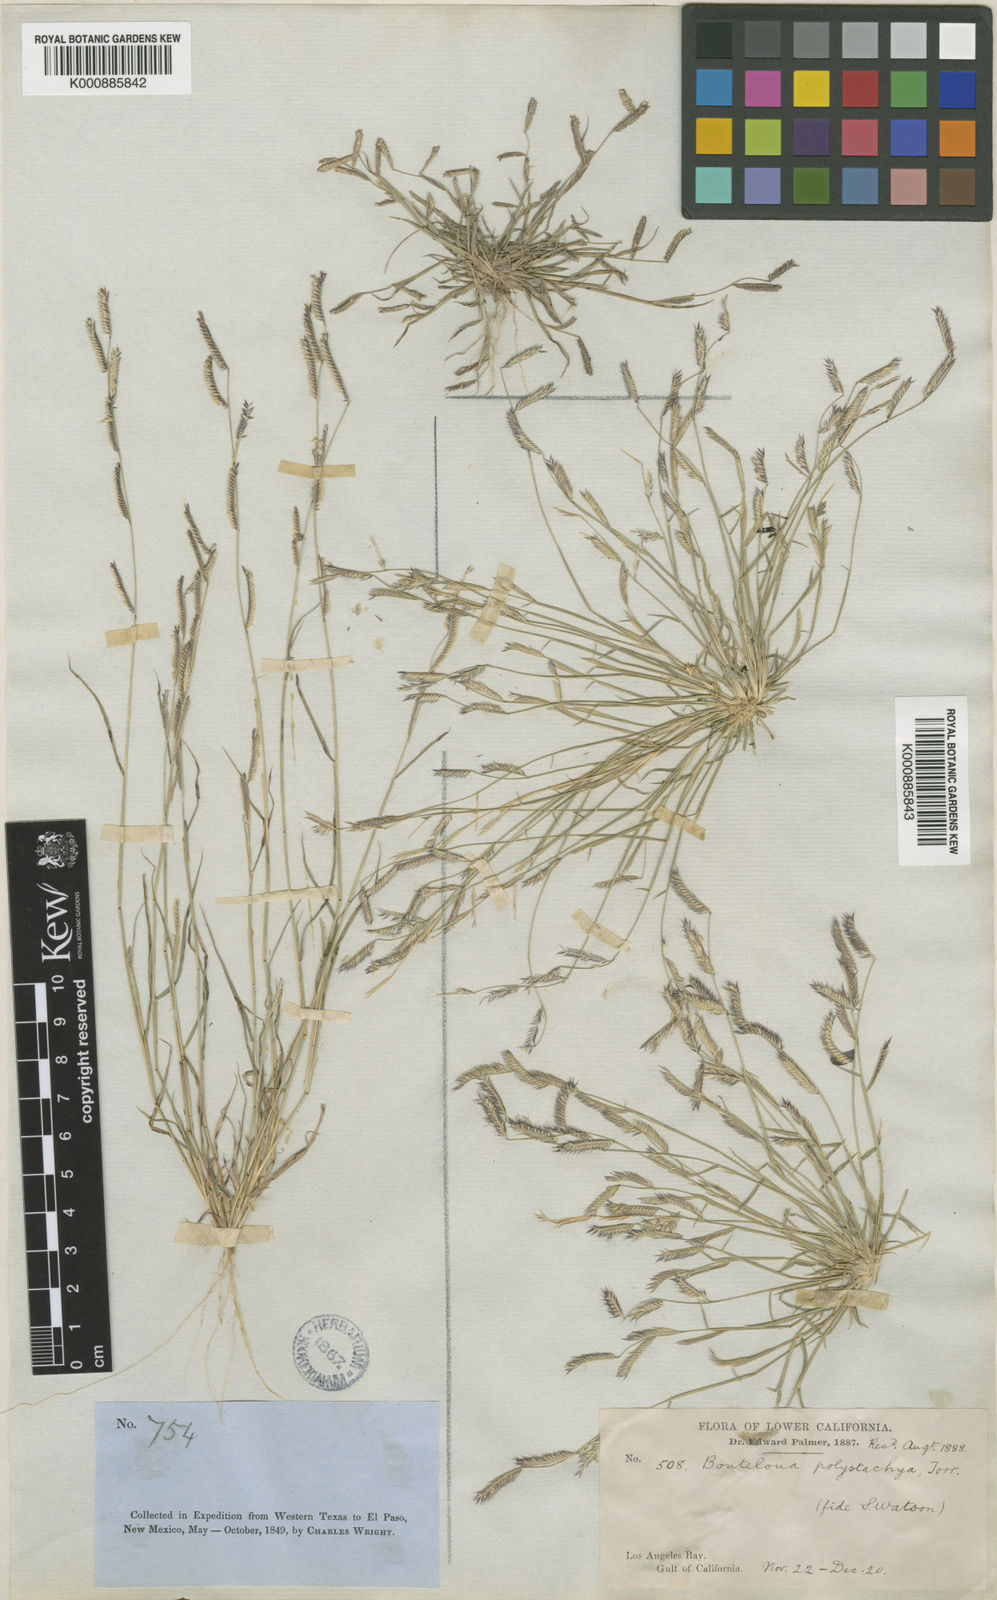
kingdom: Plantae
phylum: Tracheophyta
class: Liliopsida
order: Poales
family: Poaceae
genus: Bouteloua
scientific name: Bouteloua barbata
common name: Six-weeks grama
